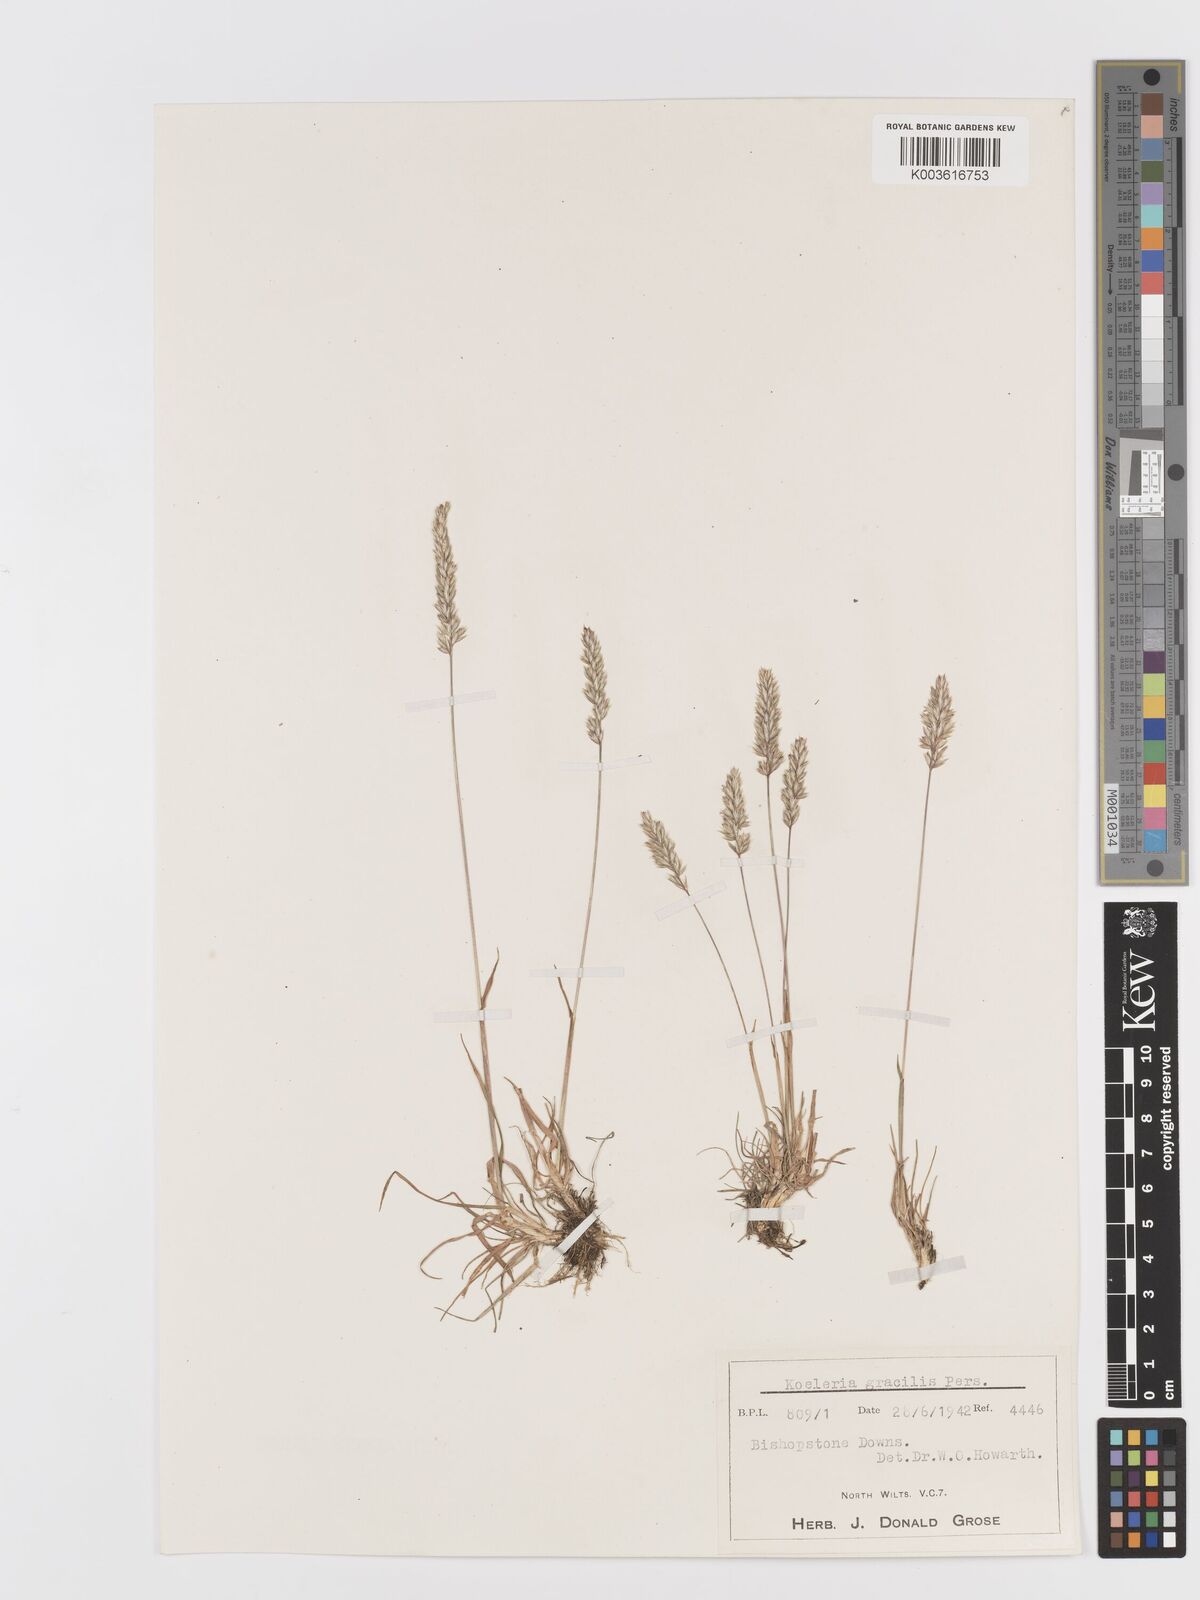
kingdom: Plantae
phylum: Tracheophyta
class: Liliopsida
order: Poales
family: Poaceae
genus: Koeleria
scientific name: Koeleria
